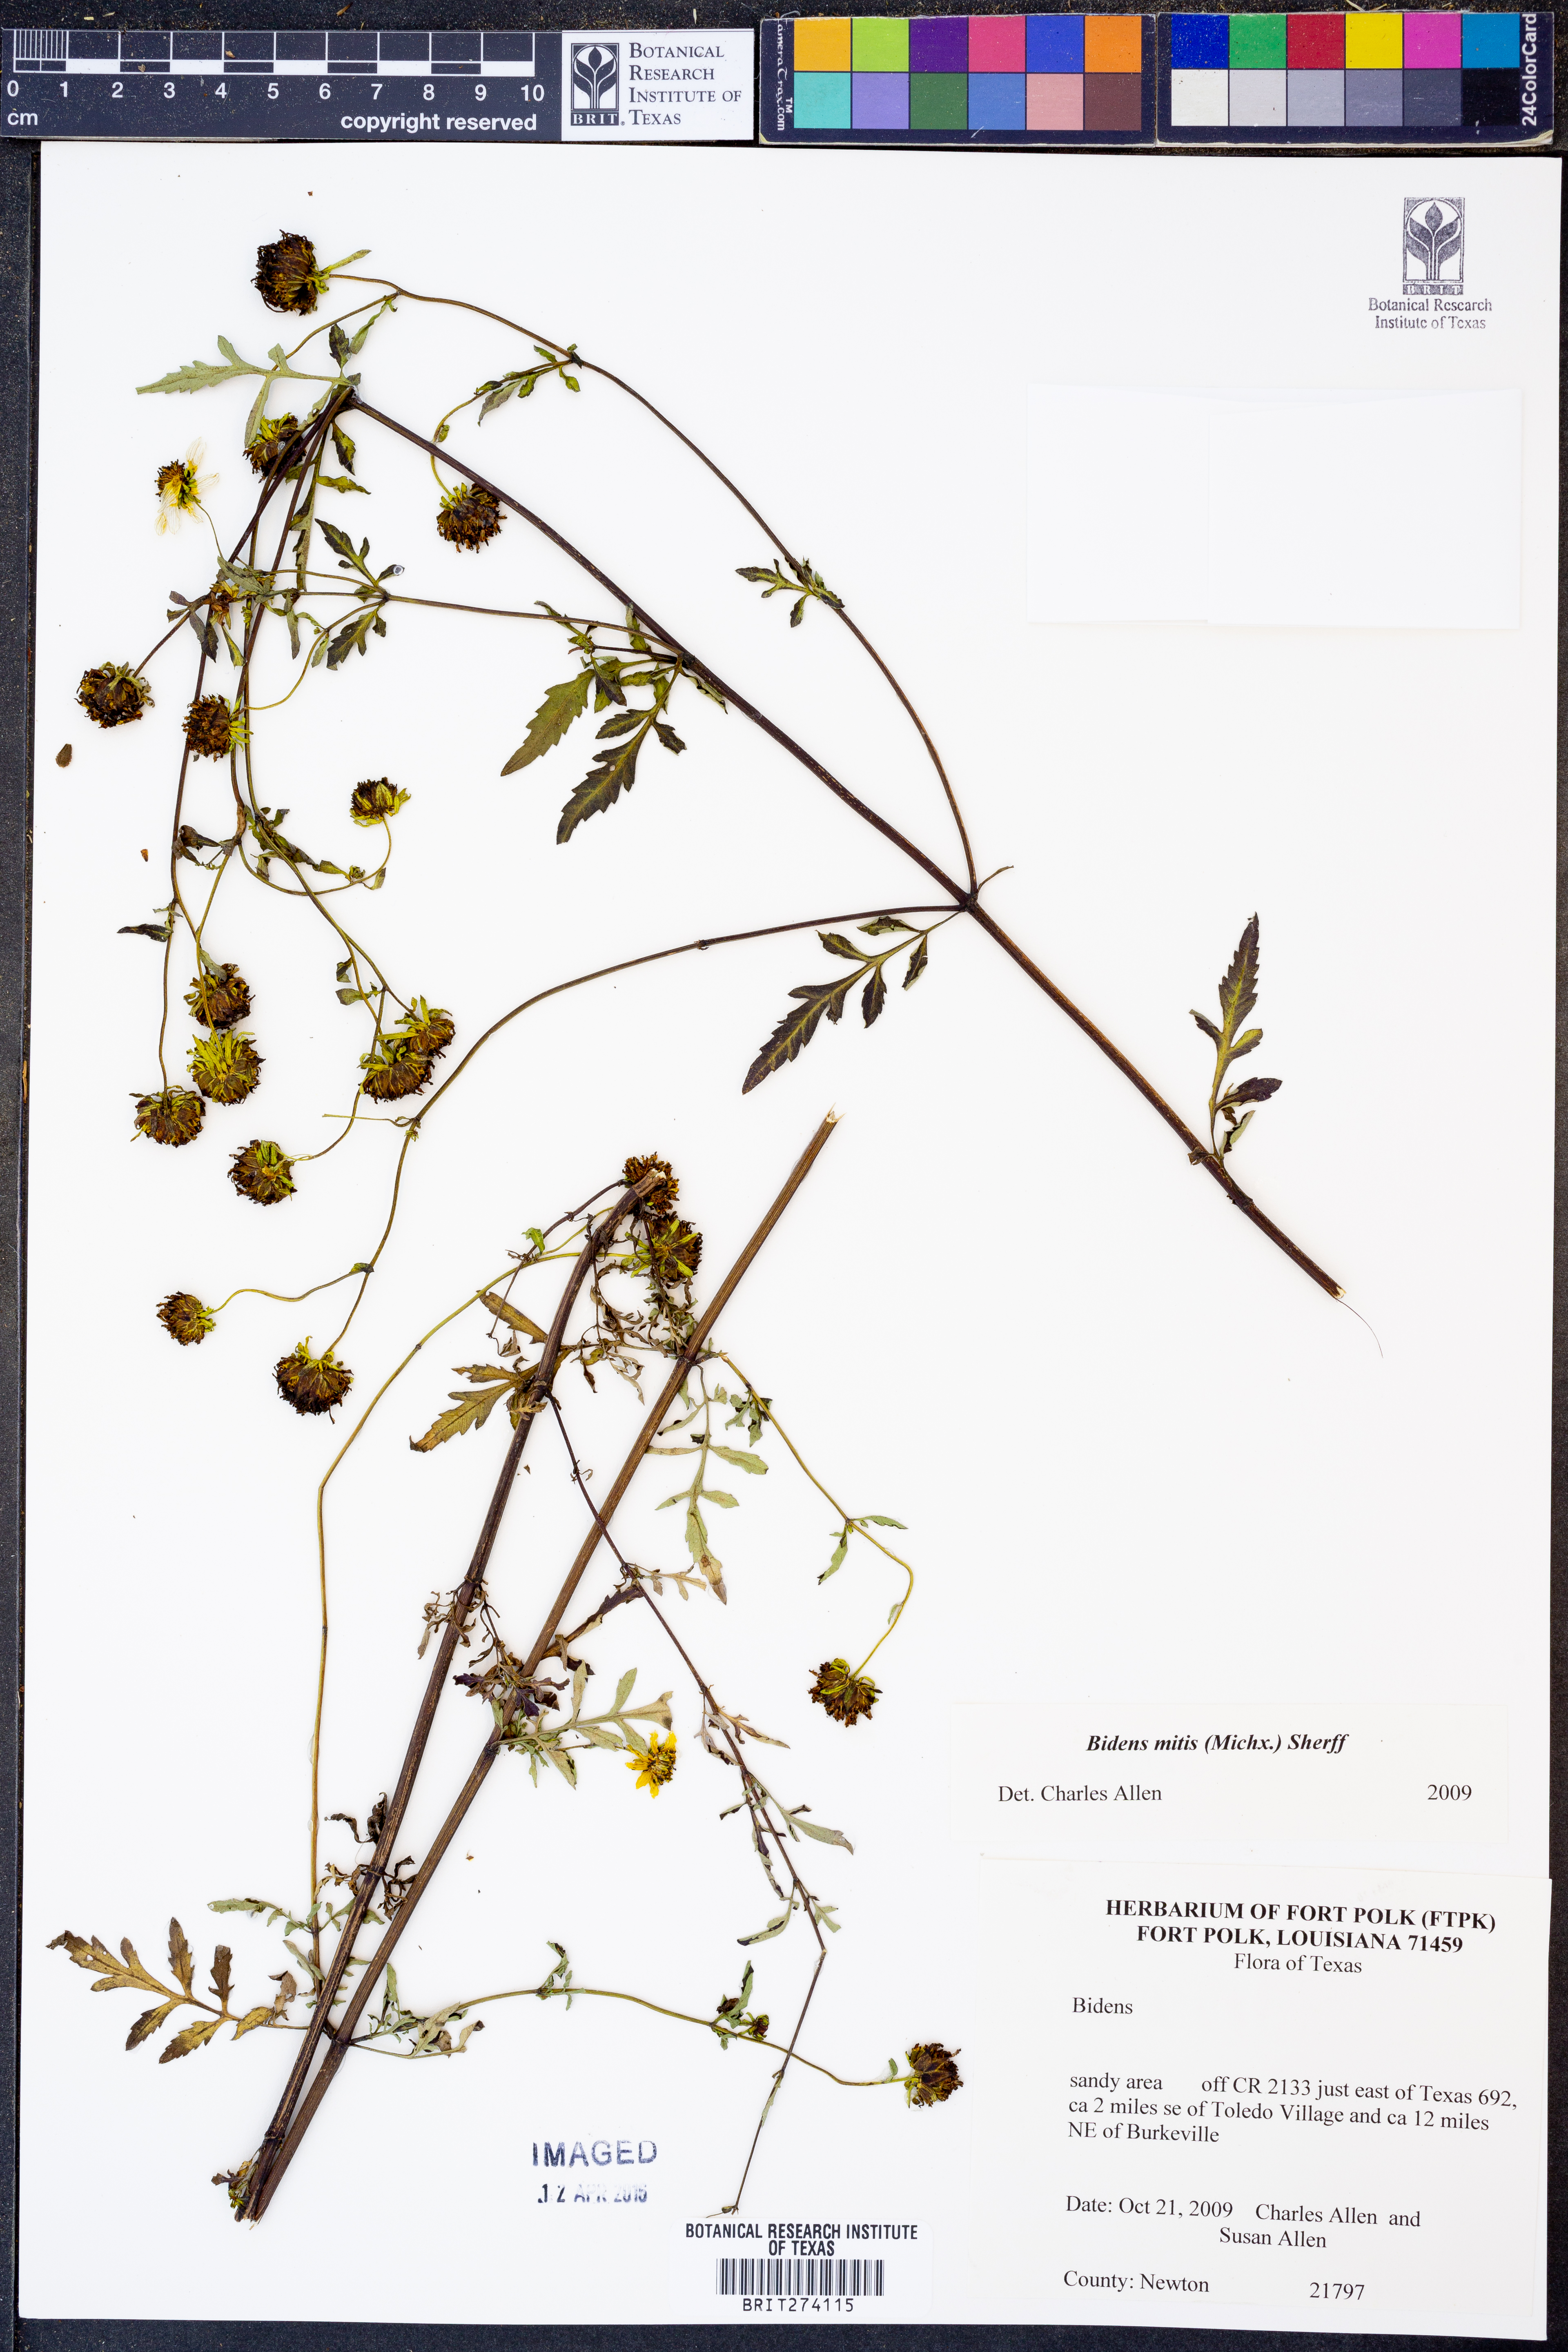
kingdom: Plantae
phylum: Tracheophyta
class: Magnoliopsida
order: Asterales
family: Asteraceae
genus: Bidens
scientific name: Bidens mitis
